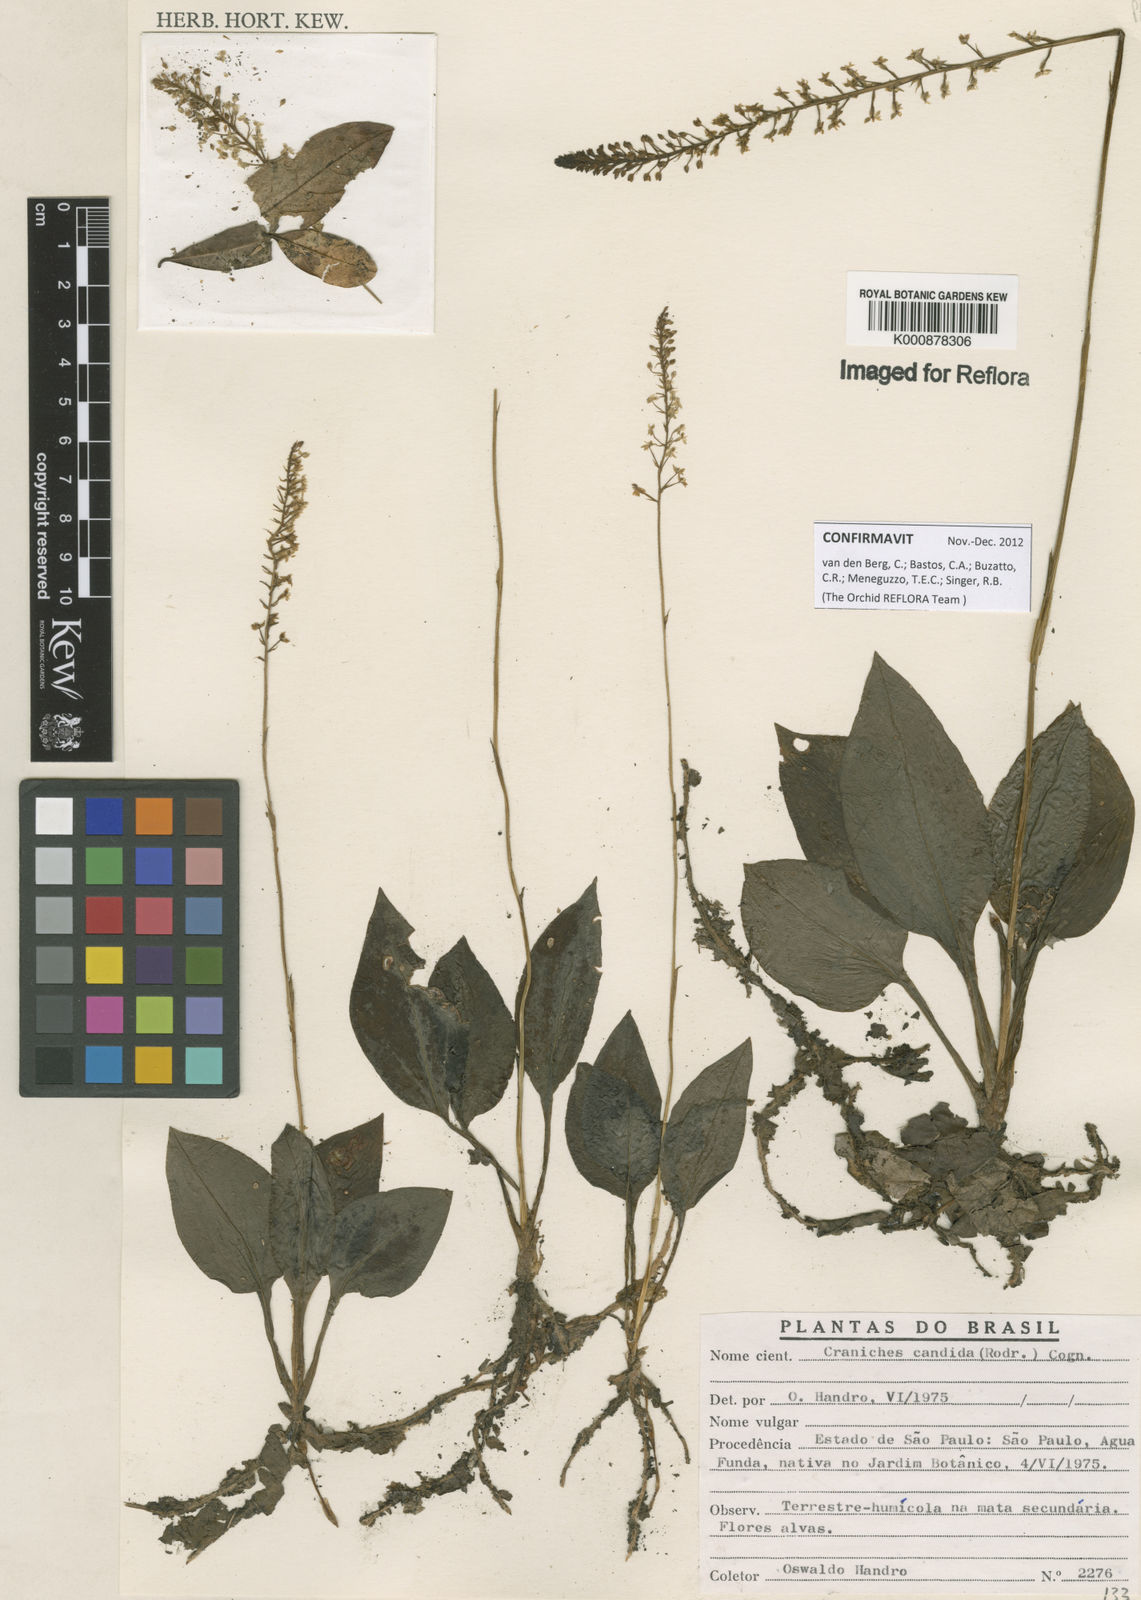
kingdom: Plantae
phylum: Tracheophyta
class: Liliopsida
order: Asparagales
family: Orchidaceae
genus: Cranichis
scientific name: Cranichis candida
